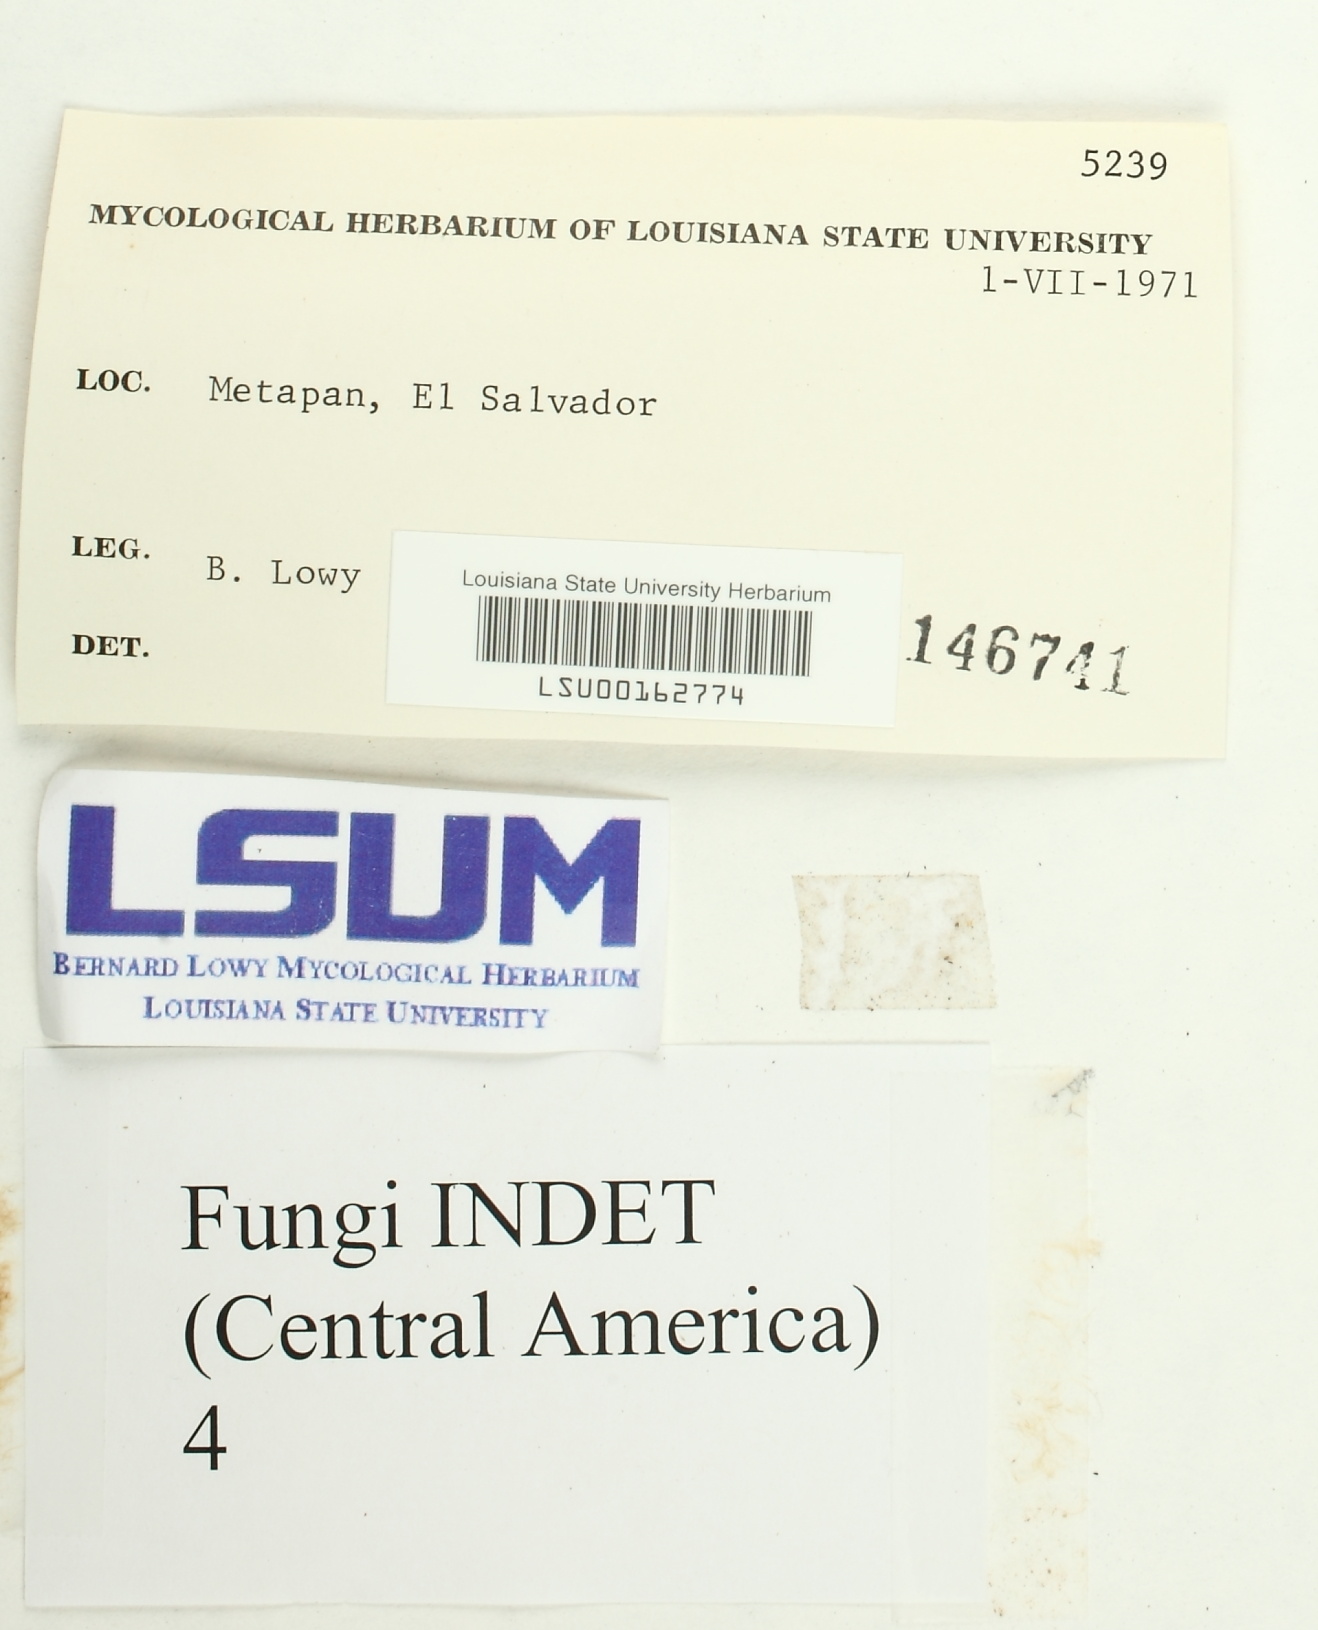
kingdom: Fungi
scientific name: Fungi
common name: Fungi
